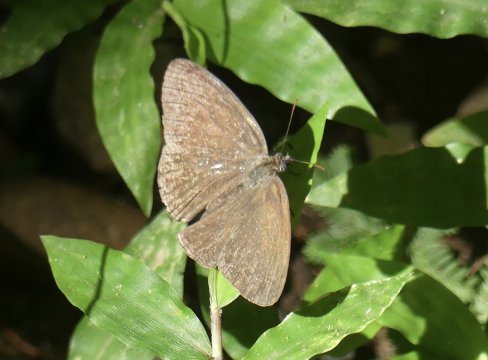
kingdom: Animalia
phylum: Arthropoda
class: Insecta
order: Lepidoptera
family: Nymphalidae
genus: Hermeuptychia
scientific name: Hermeuptychia hermes
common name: Hermes Satyr
